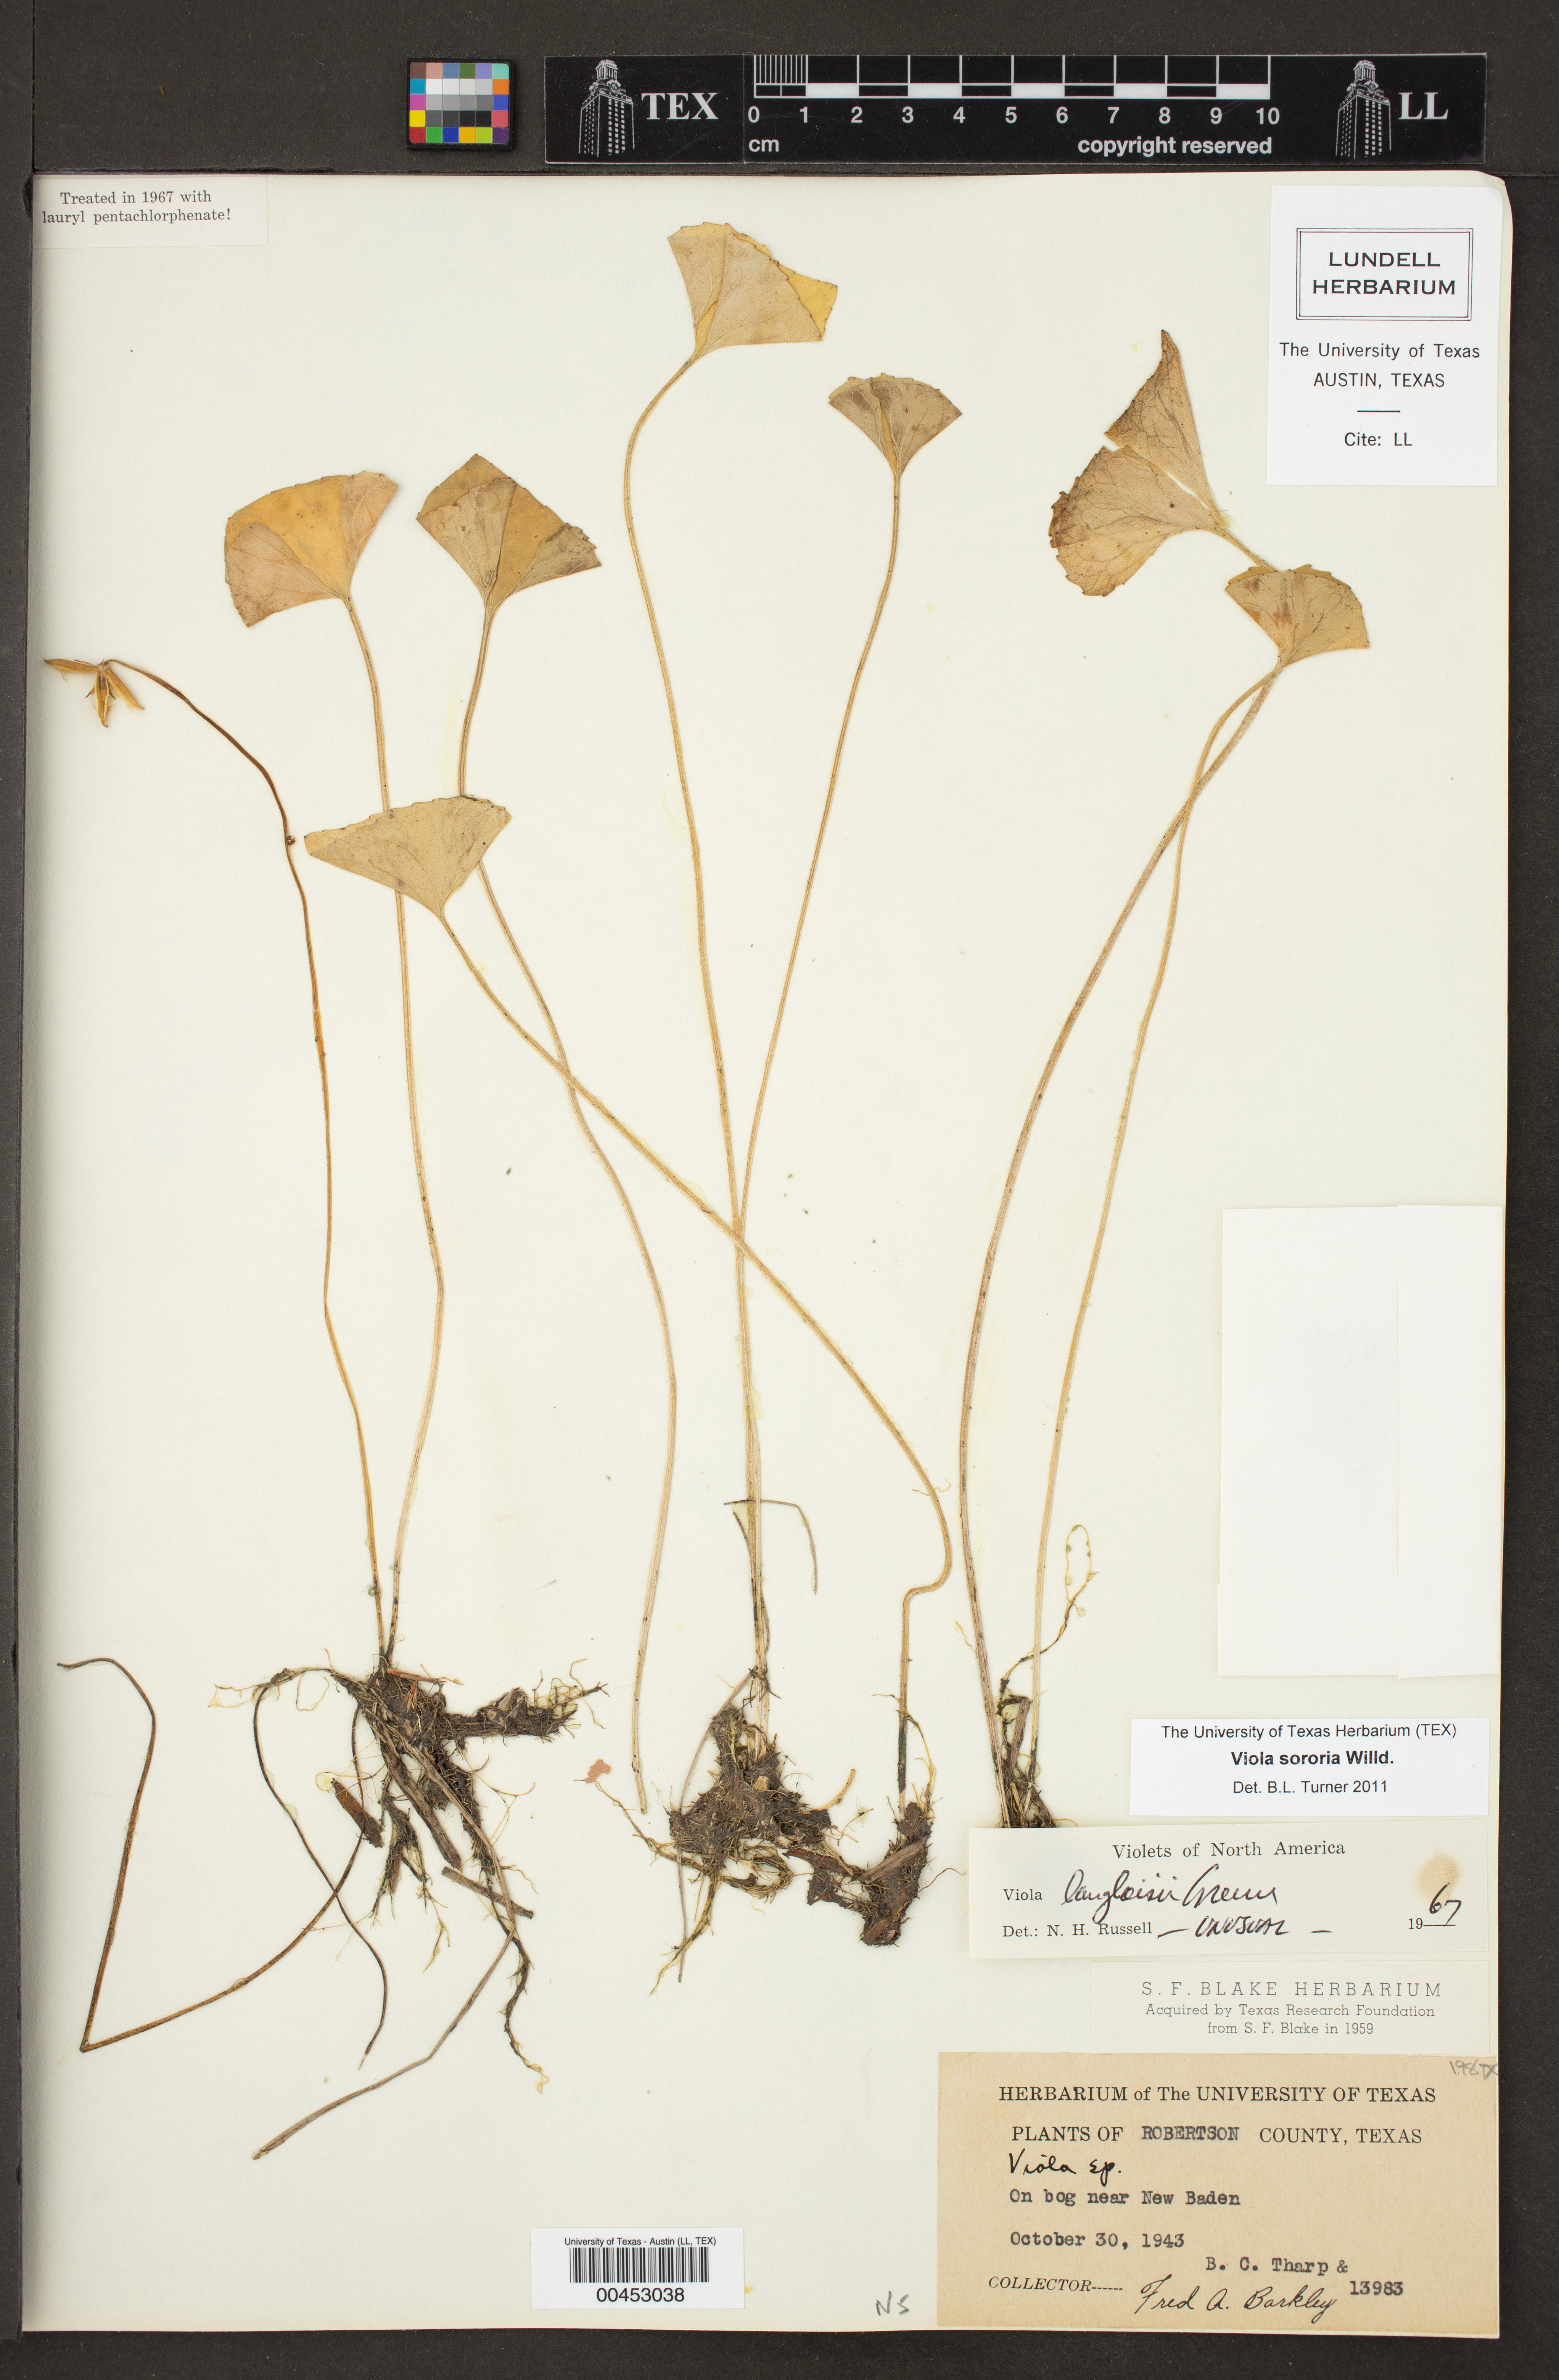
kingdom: Plantae
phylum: Tracheophyta
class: Magnoliopsida
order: Malpighiales
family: Violaceae
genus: Viola
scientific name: Viola sororia
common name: Dooryard violet
